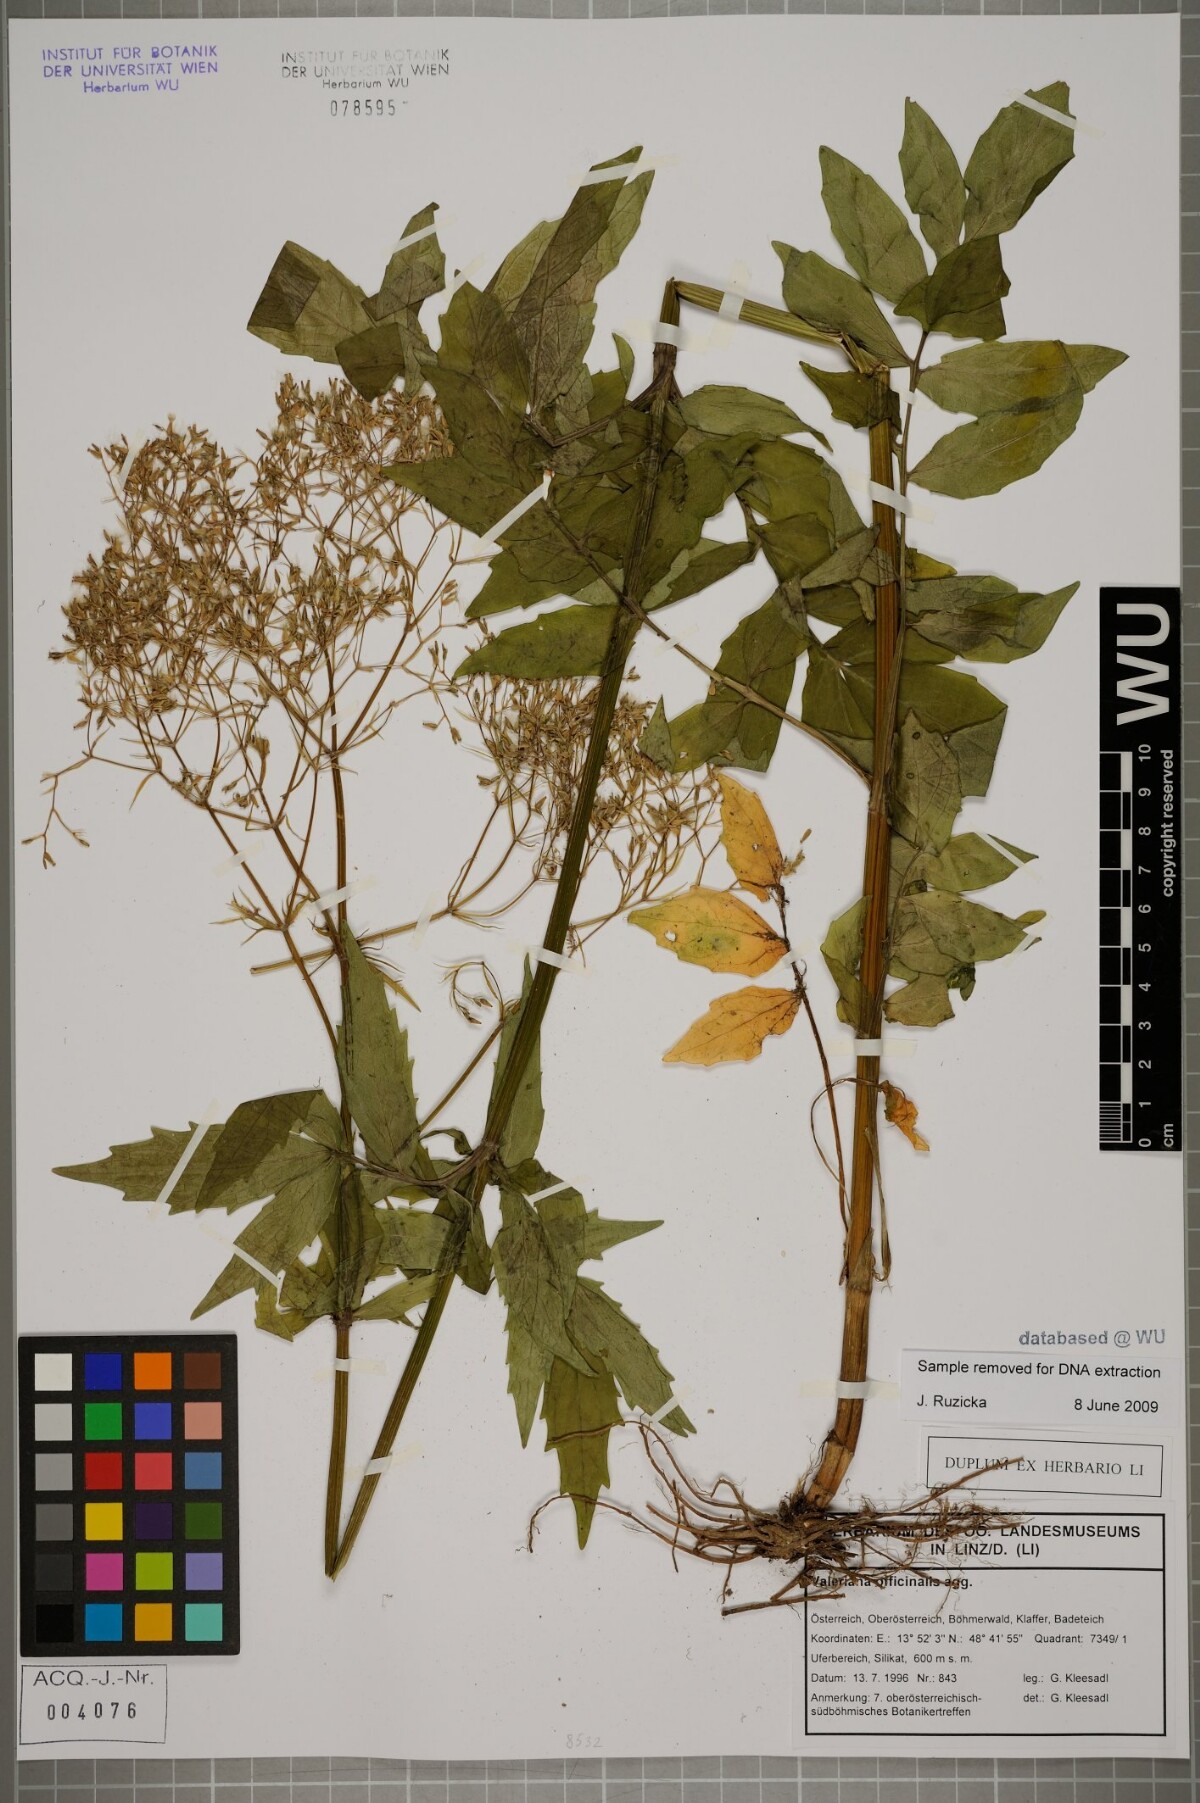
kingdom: Plantae
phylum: Tracheophyta
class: Magnoliopsida
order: Dipsacales
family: Caprifoliaceae
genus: Valeriana
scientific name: Valeriana officinalis
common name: Common valerian
